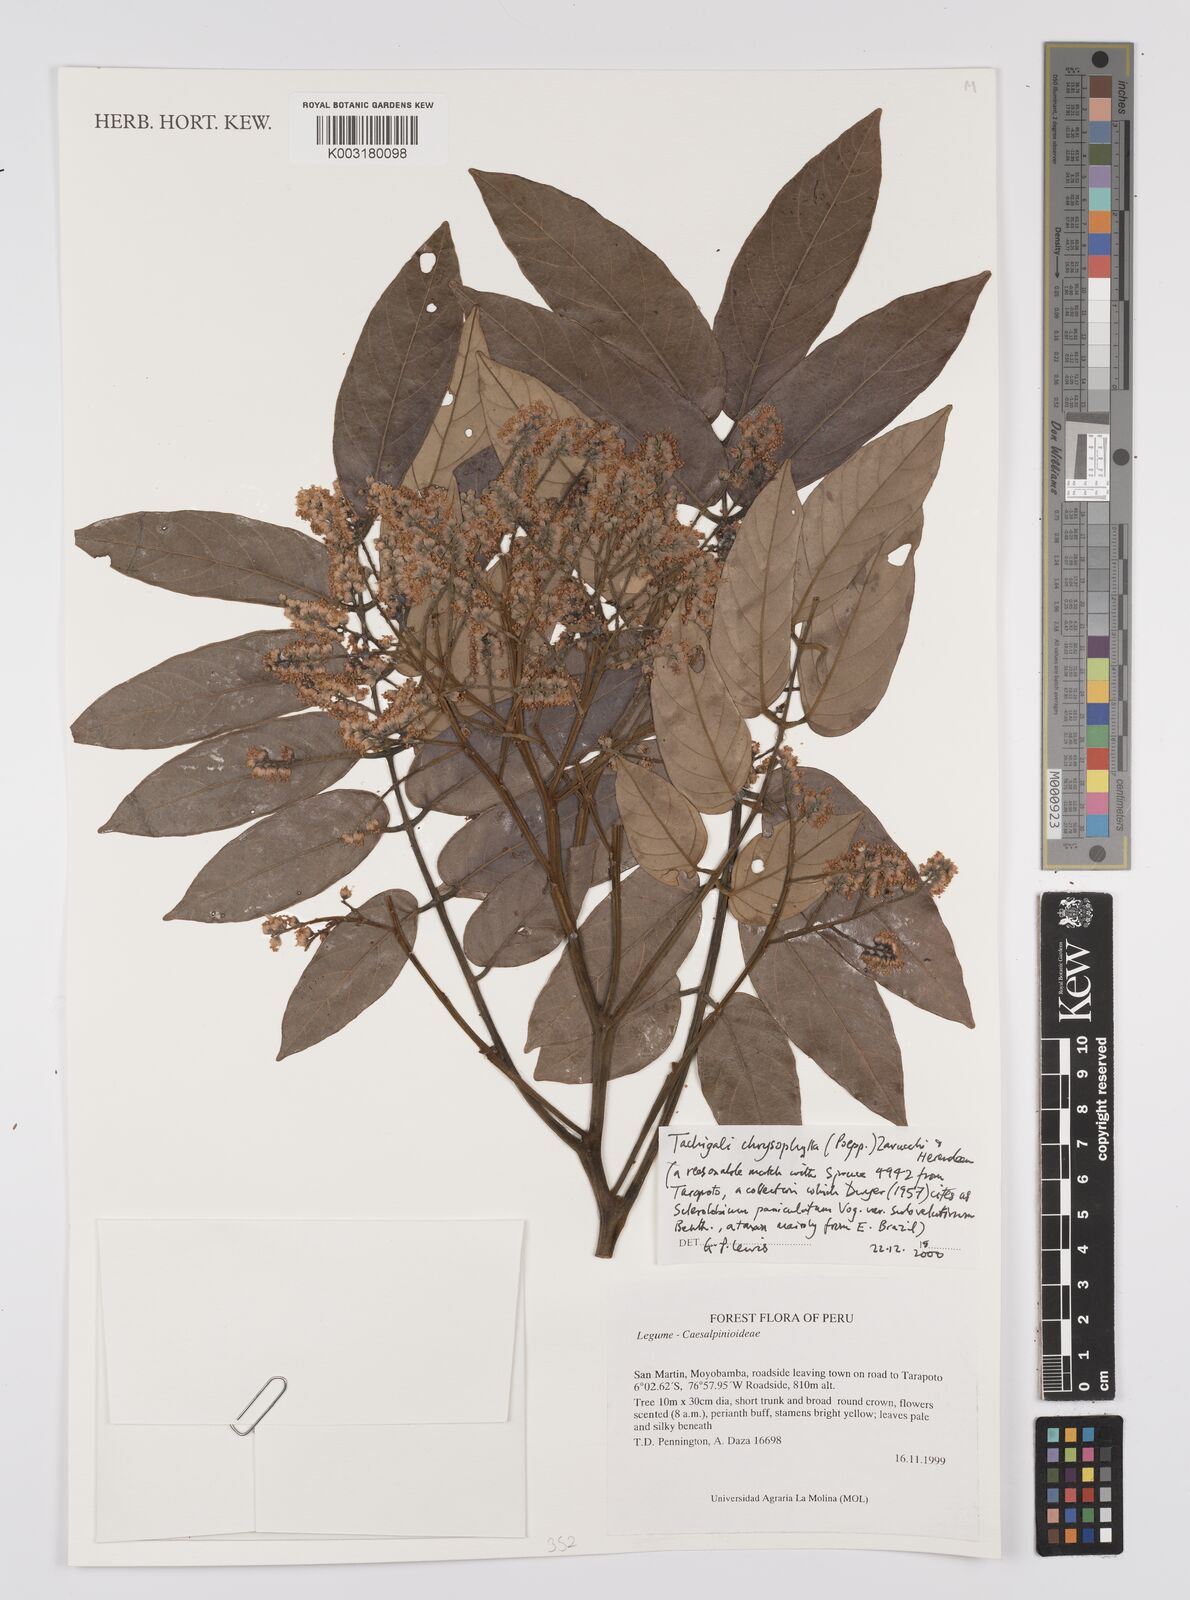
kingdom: Plantae
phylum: Tracheophyta
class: Magnoliopsida
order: Fabales
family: Fabaceae
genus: Tachigali
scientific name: Tachigali chrysophylla
